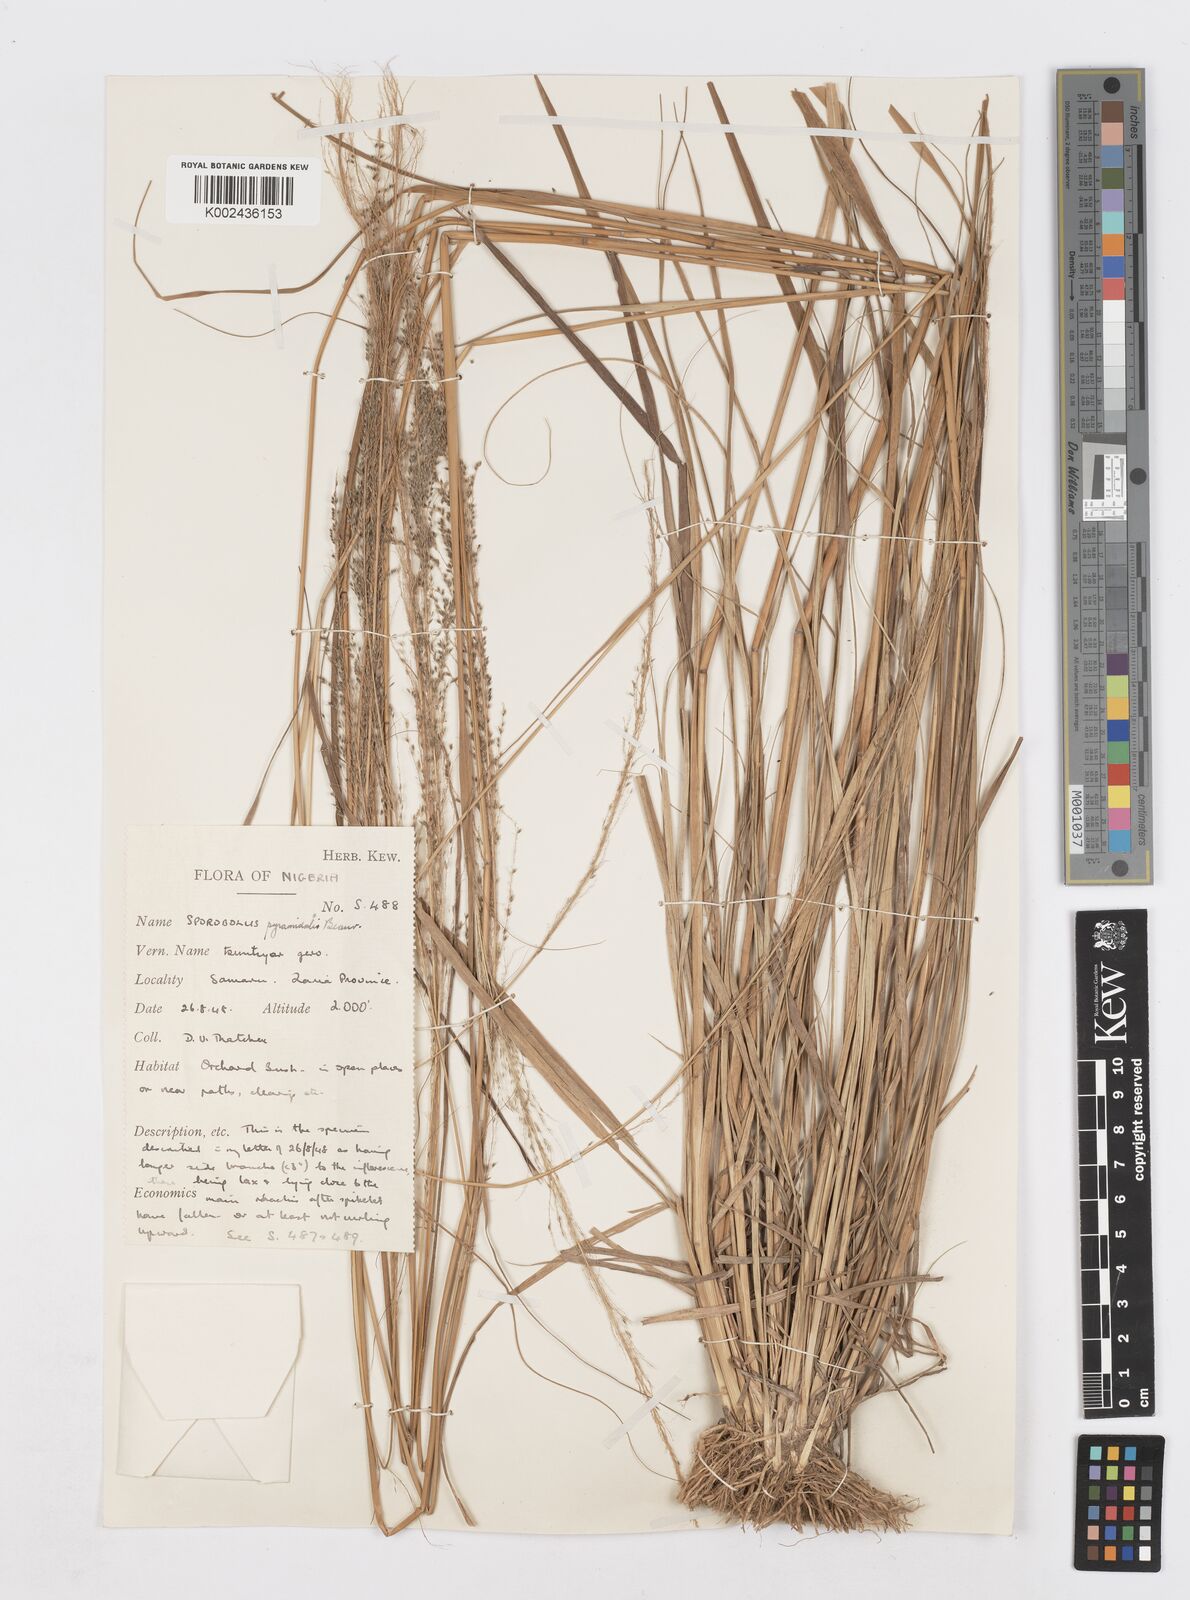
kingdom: Plantae
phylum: Tracheophyta
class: Liliopsida
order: Poales
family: Poaceae
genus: Sporobolus
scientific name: Sporobolus pyramidalis
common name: West indian dropseed
